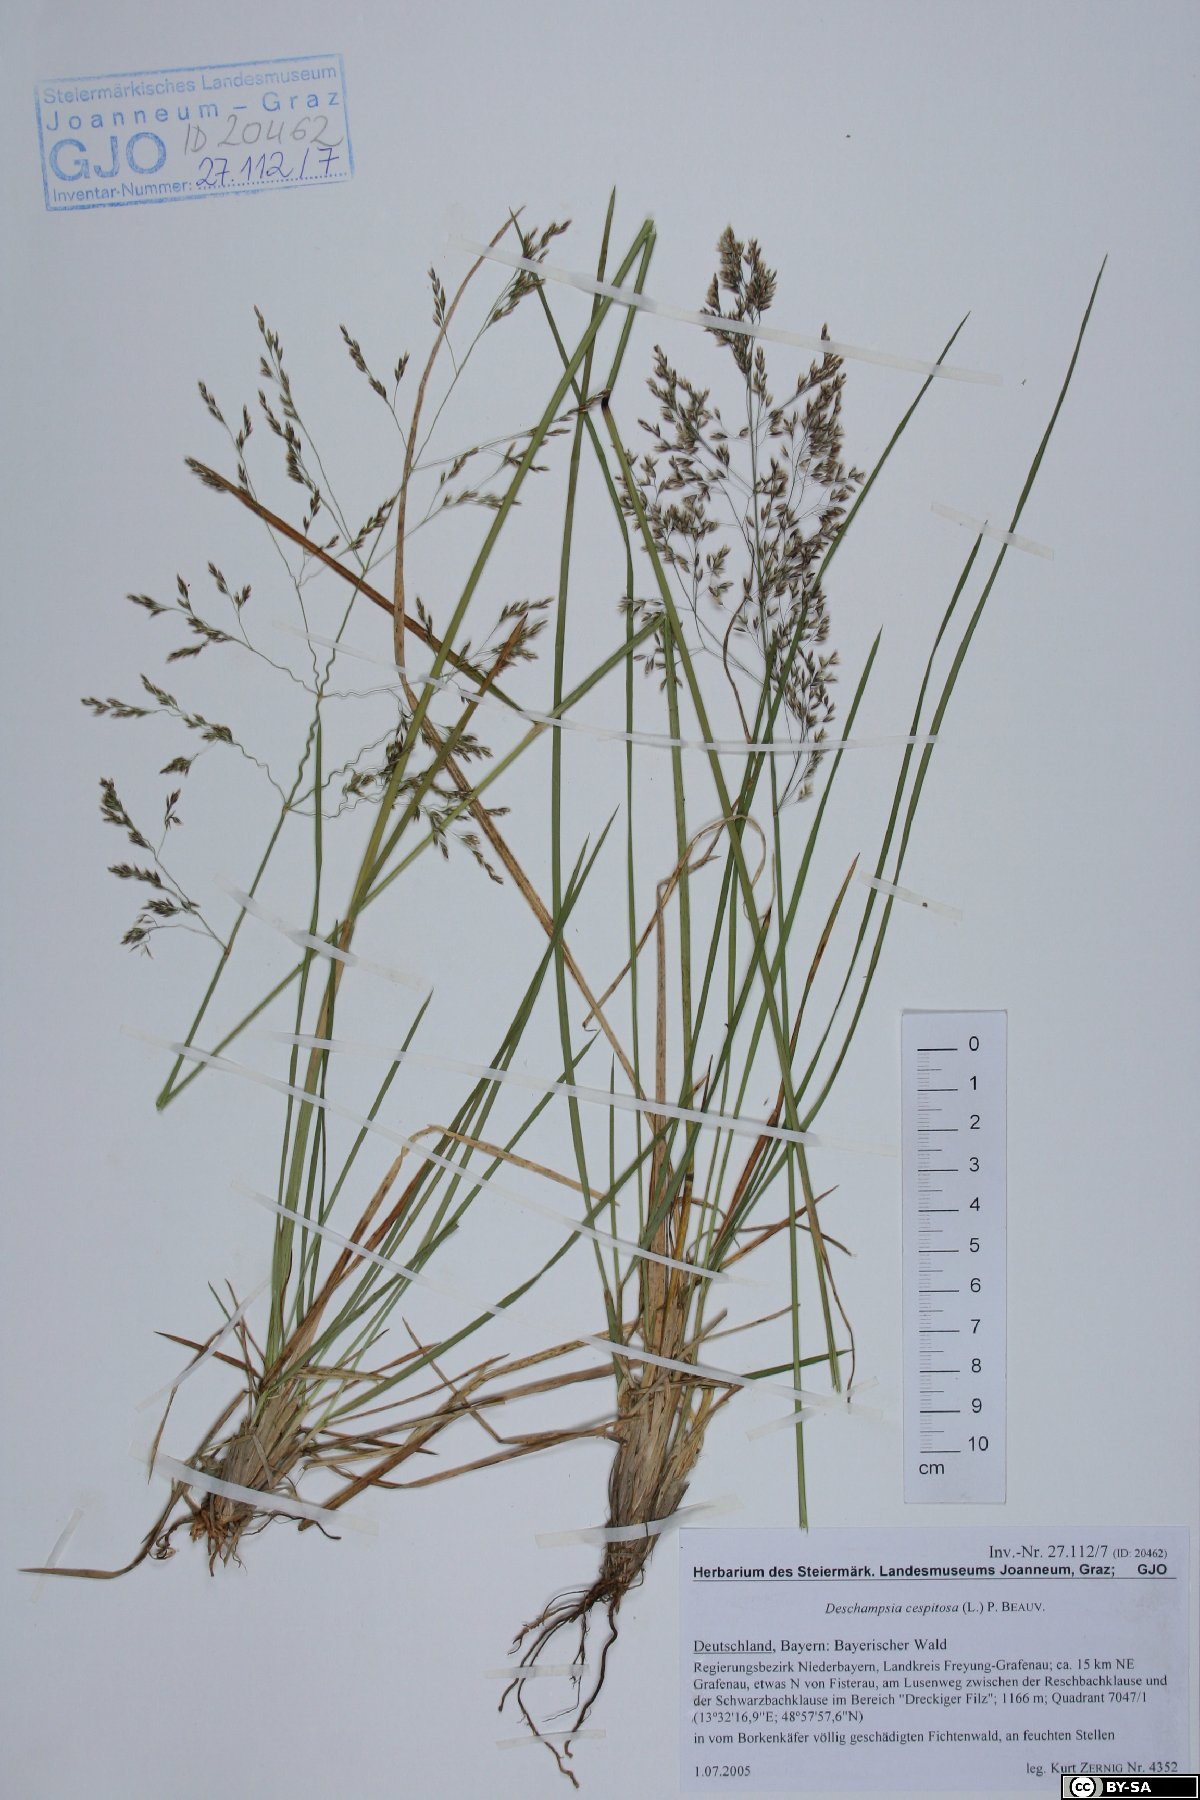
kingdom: Plantae
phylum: Tracheophyta
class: Liliopsida
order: Poales
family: Poaceae
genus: Deschampsia
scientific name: Deschampsia cespitosa
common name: Tufted hair-grass
